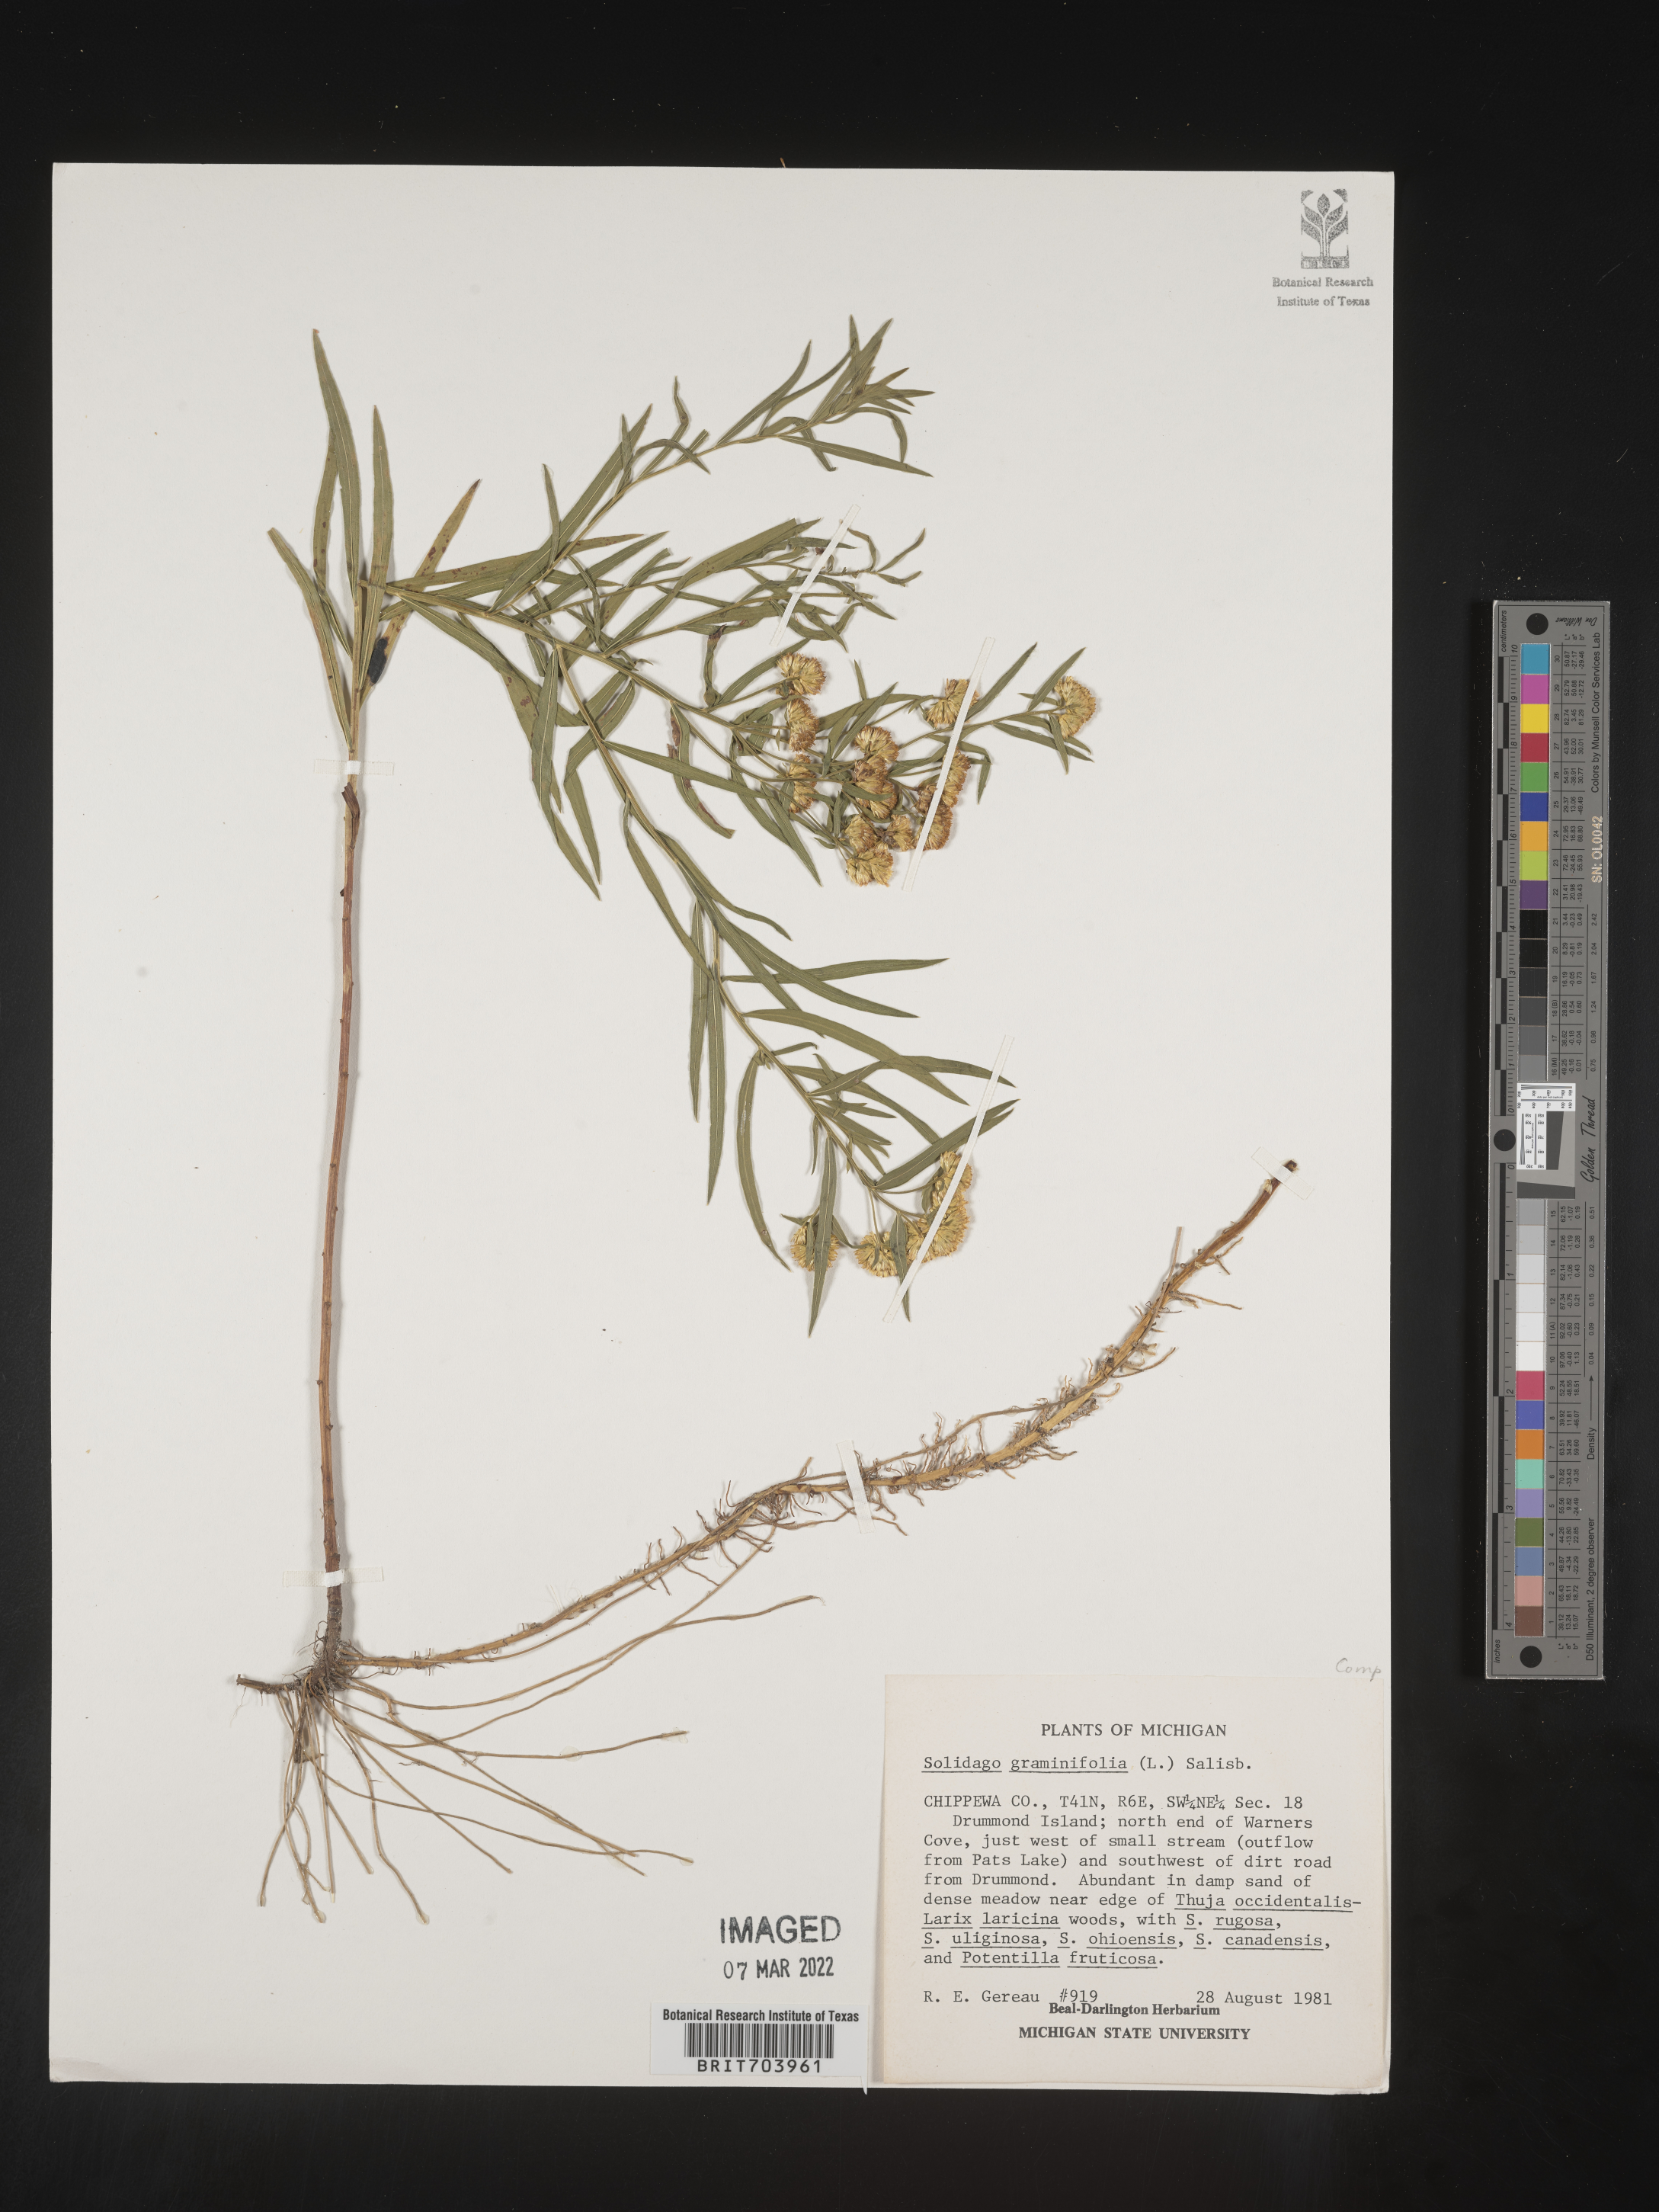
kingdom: Plantae
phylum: Tracheophyta
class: Magnoliopsida
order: Asterales
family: Asteraceae
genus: Euthamia
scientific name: Euthamia graminifolia
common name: Common goldentop
